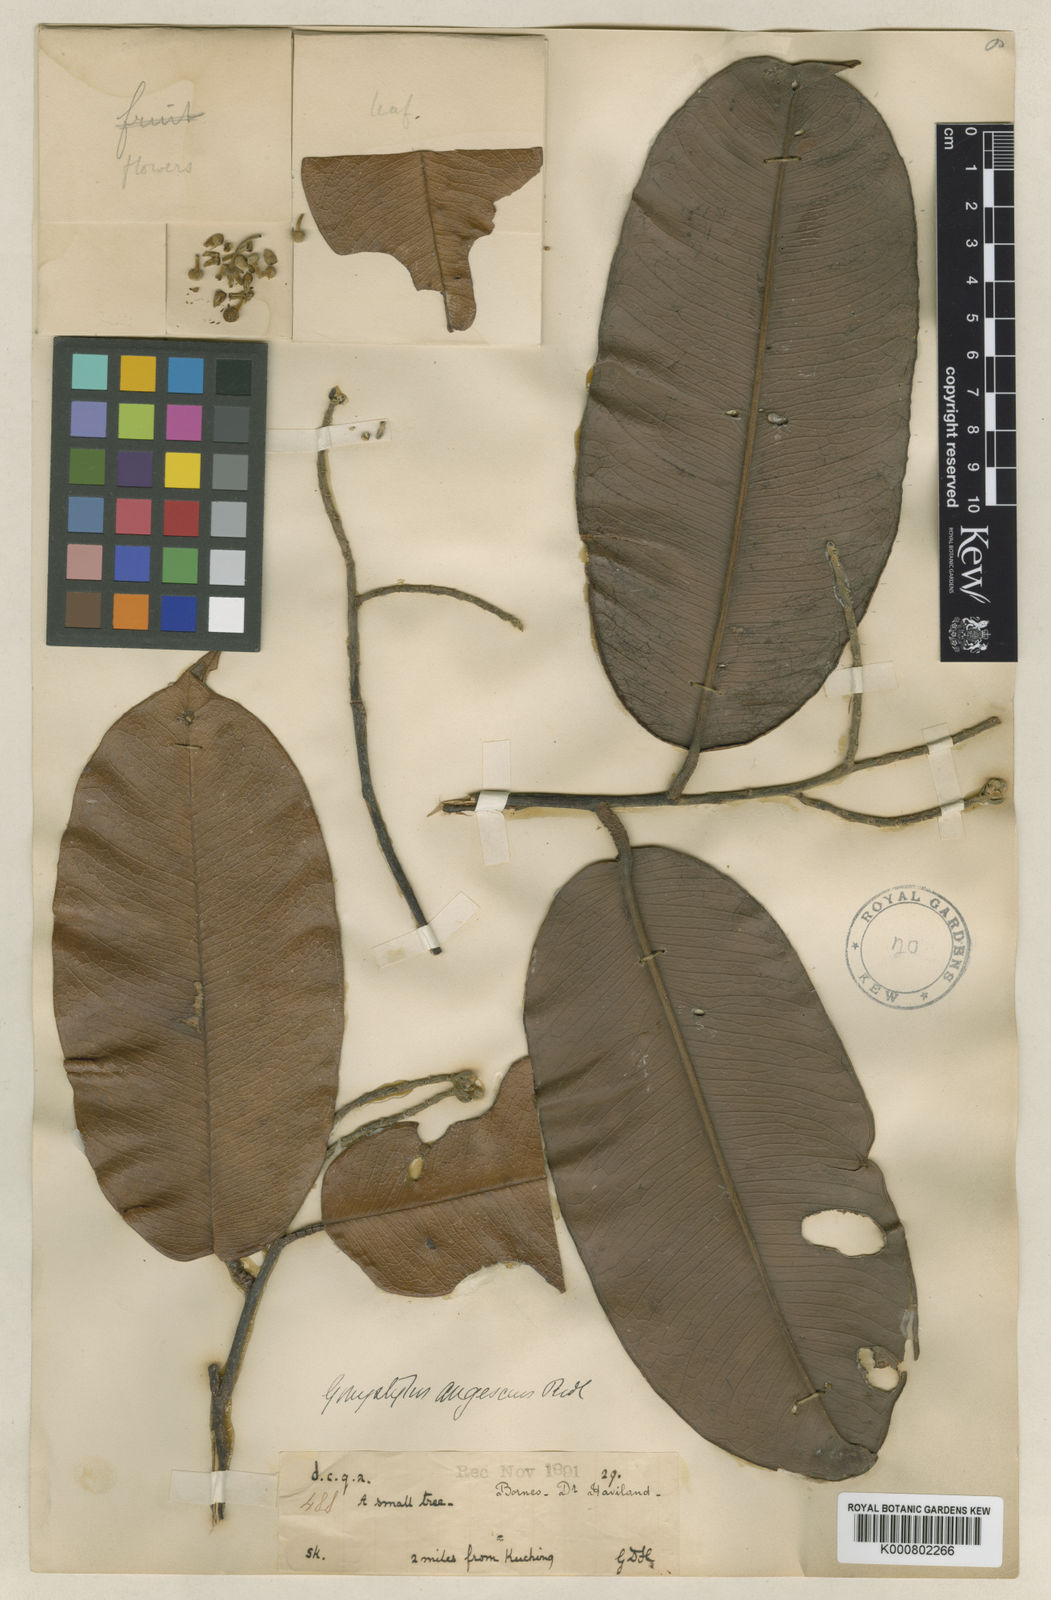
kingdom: Plantae
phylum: Tracheophyta
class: Magnoliopsida
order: Malvales
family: Thymelaeaceae
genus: Gonystylus
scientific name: Gonystylus augescens
